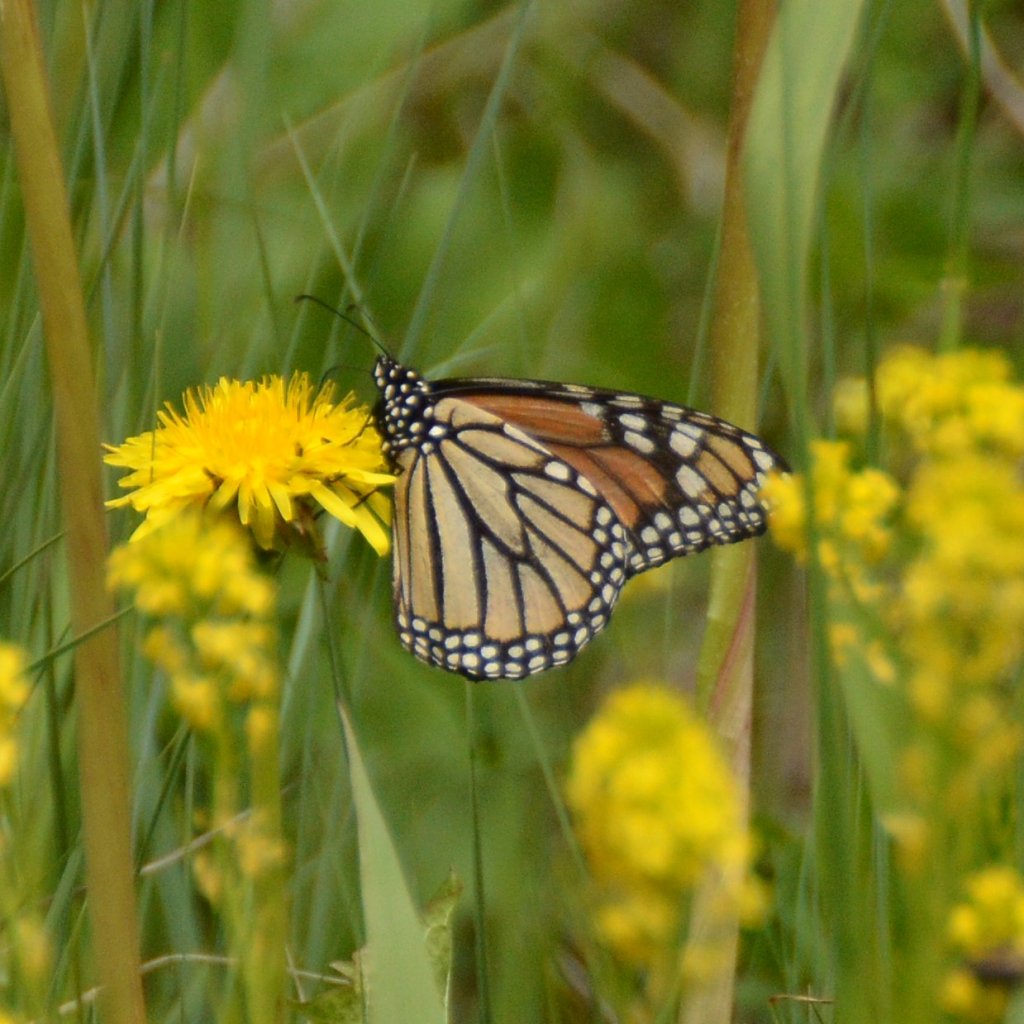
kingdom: Animalia
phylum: Arthropoda
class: Insecta
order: Lepidoptera
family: Nymphalidae
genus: Danaus
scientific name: Danaus plexippus
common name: Monarch
